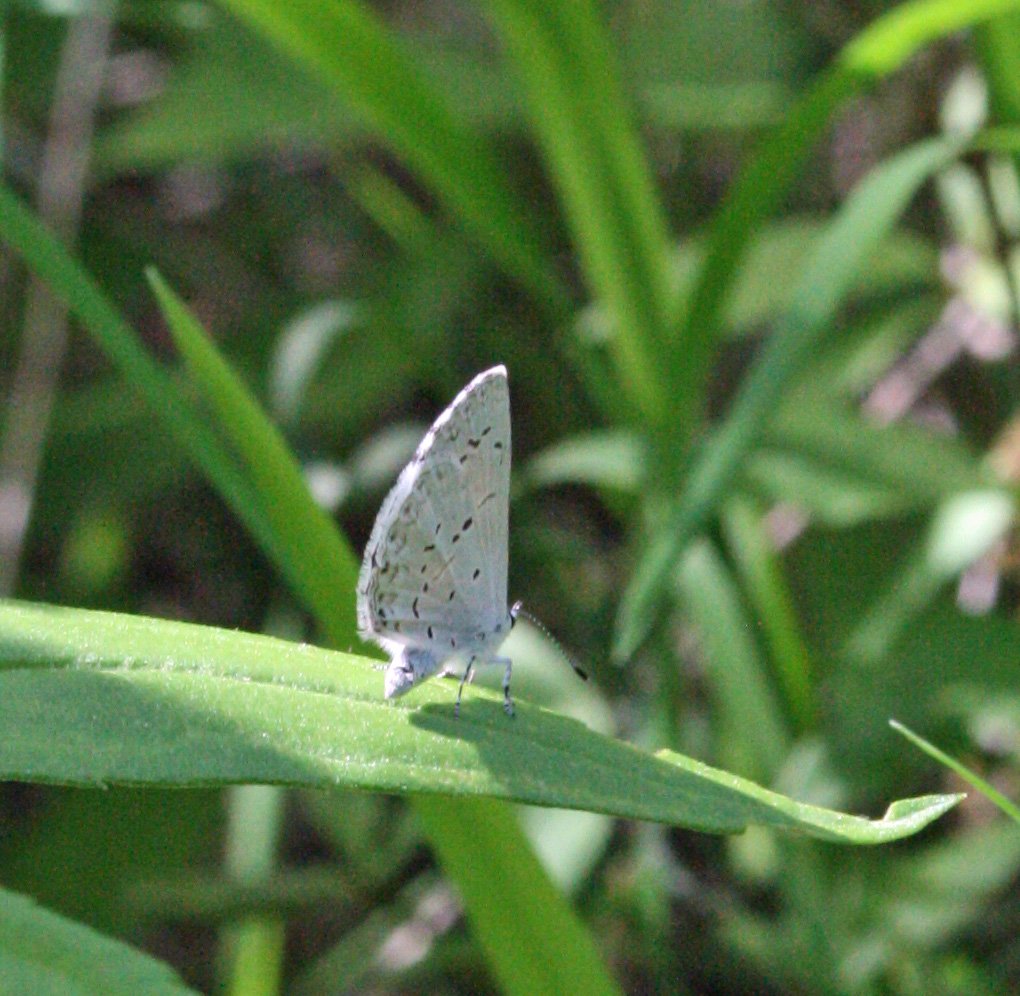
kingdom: Animalia
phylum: Arthropoda
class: Insecta
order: Lepidoptera
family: Lycaenidae
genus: Celastrina
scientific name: Celastrina
